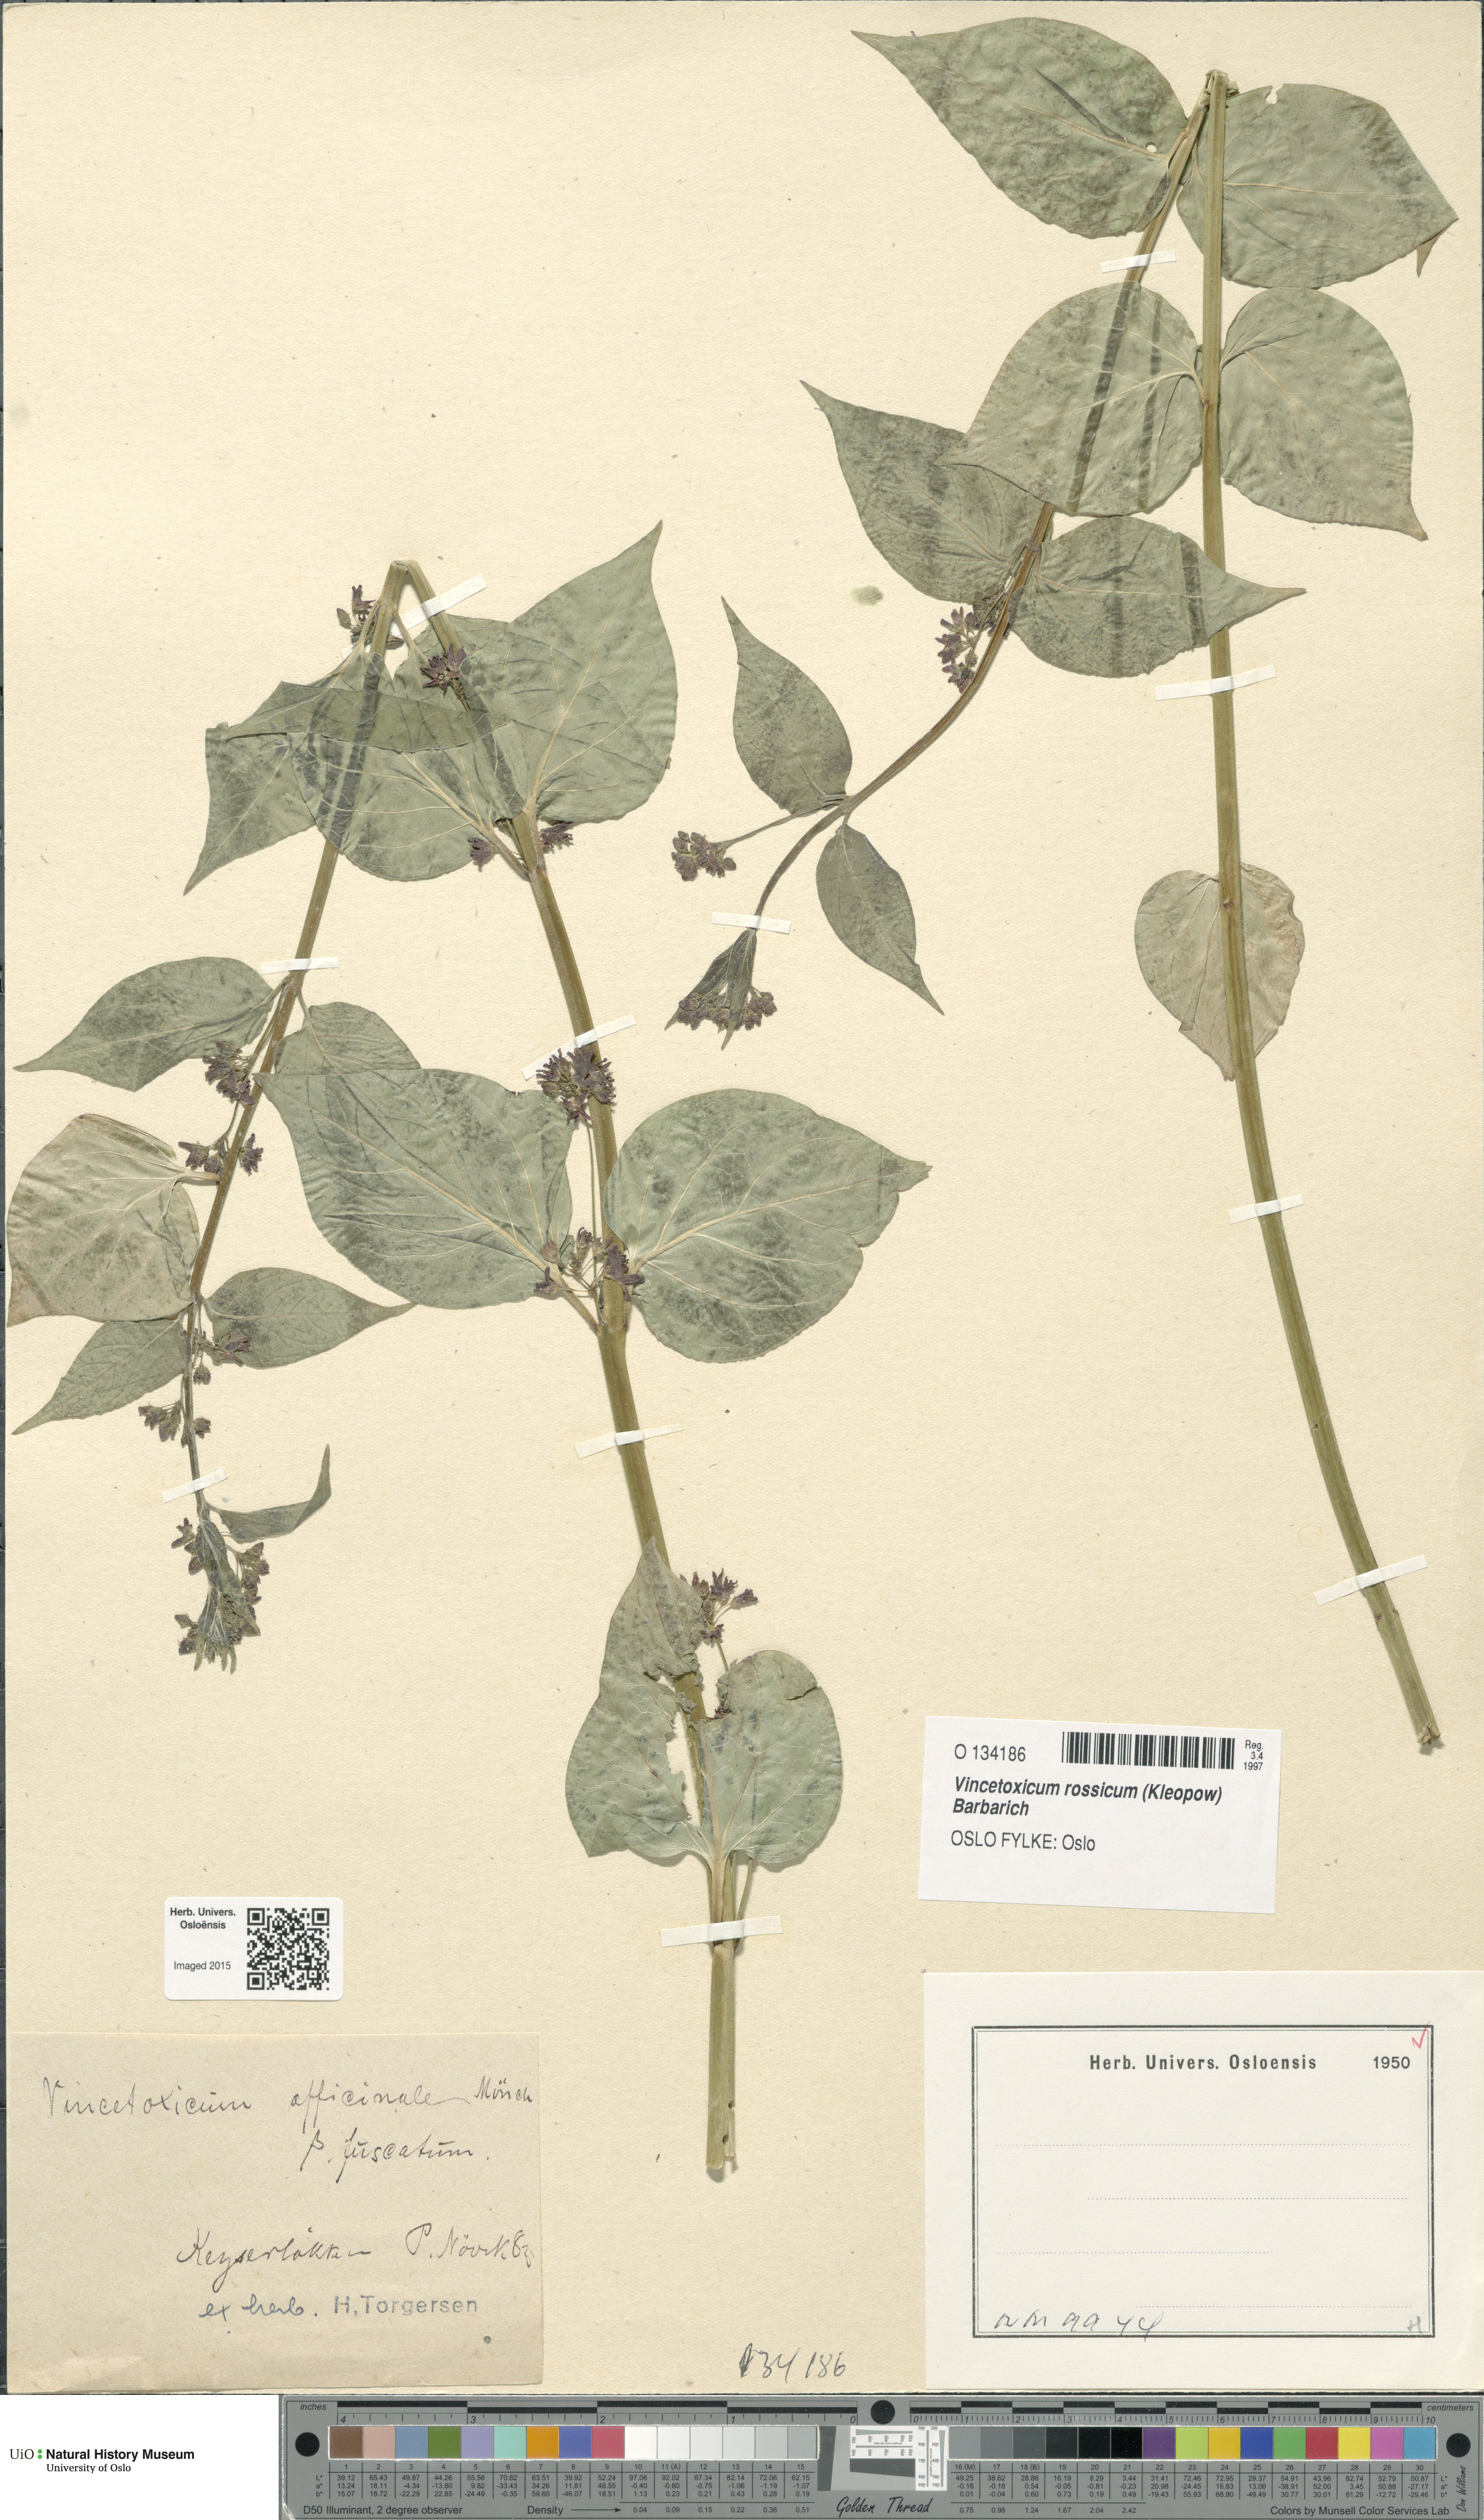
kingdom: Plantae
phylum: Tracheophyta
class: Magnoliopsida
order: Gentianales
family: Apocynaceae
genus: Vincetoxicum
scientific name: Vincetoxicum rossicum
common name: Dog-strangling vine
